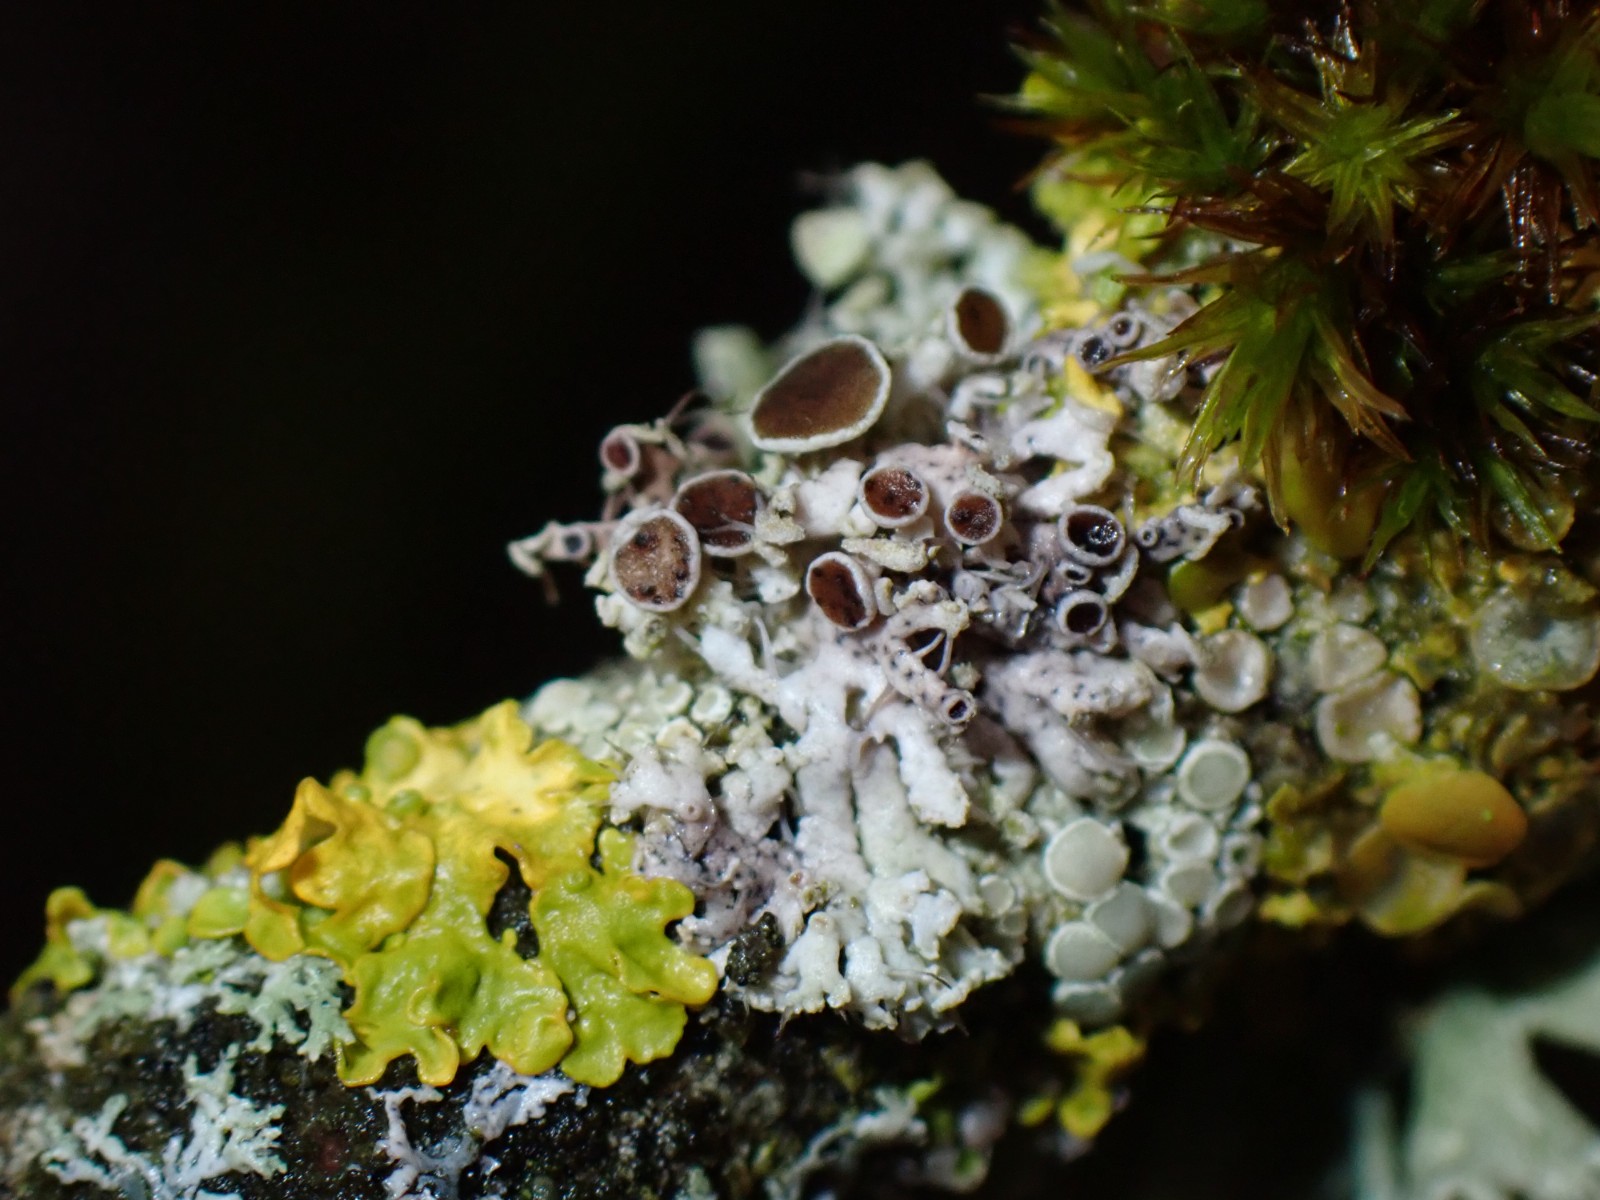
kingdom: Fungi
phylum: Ascomycota
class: Lecanoromycetes
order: Caliciales
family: Physciaceae
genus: Physcia
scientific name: Physcia tenella
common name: spæd rosetlav
